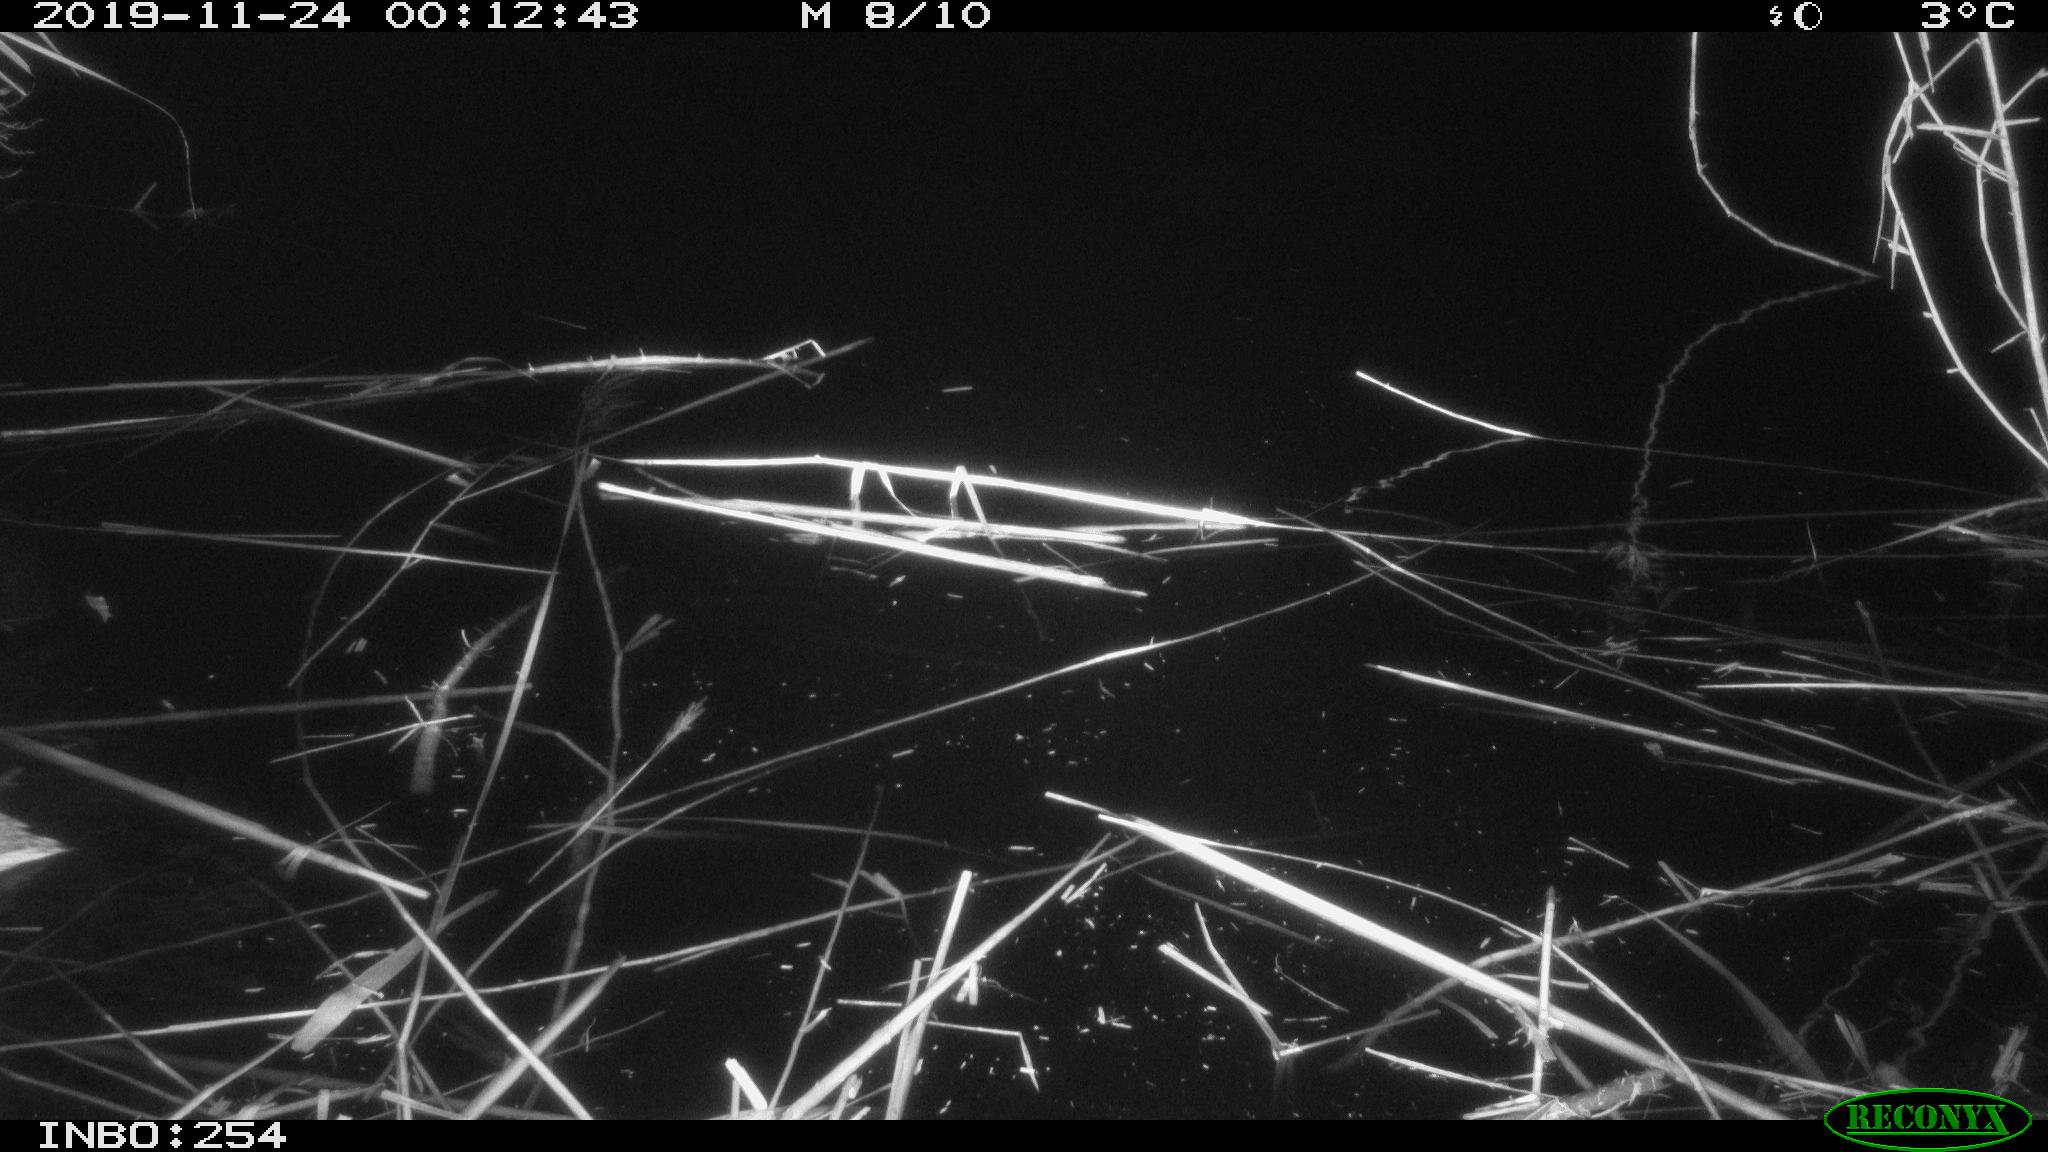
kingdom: Animalia
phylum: Chordata
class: Aves
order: Anseriformes
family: Anatidae
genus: Anas
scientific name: Anas platyrhynchos
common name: Mallard
